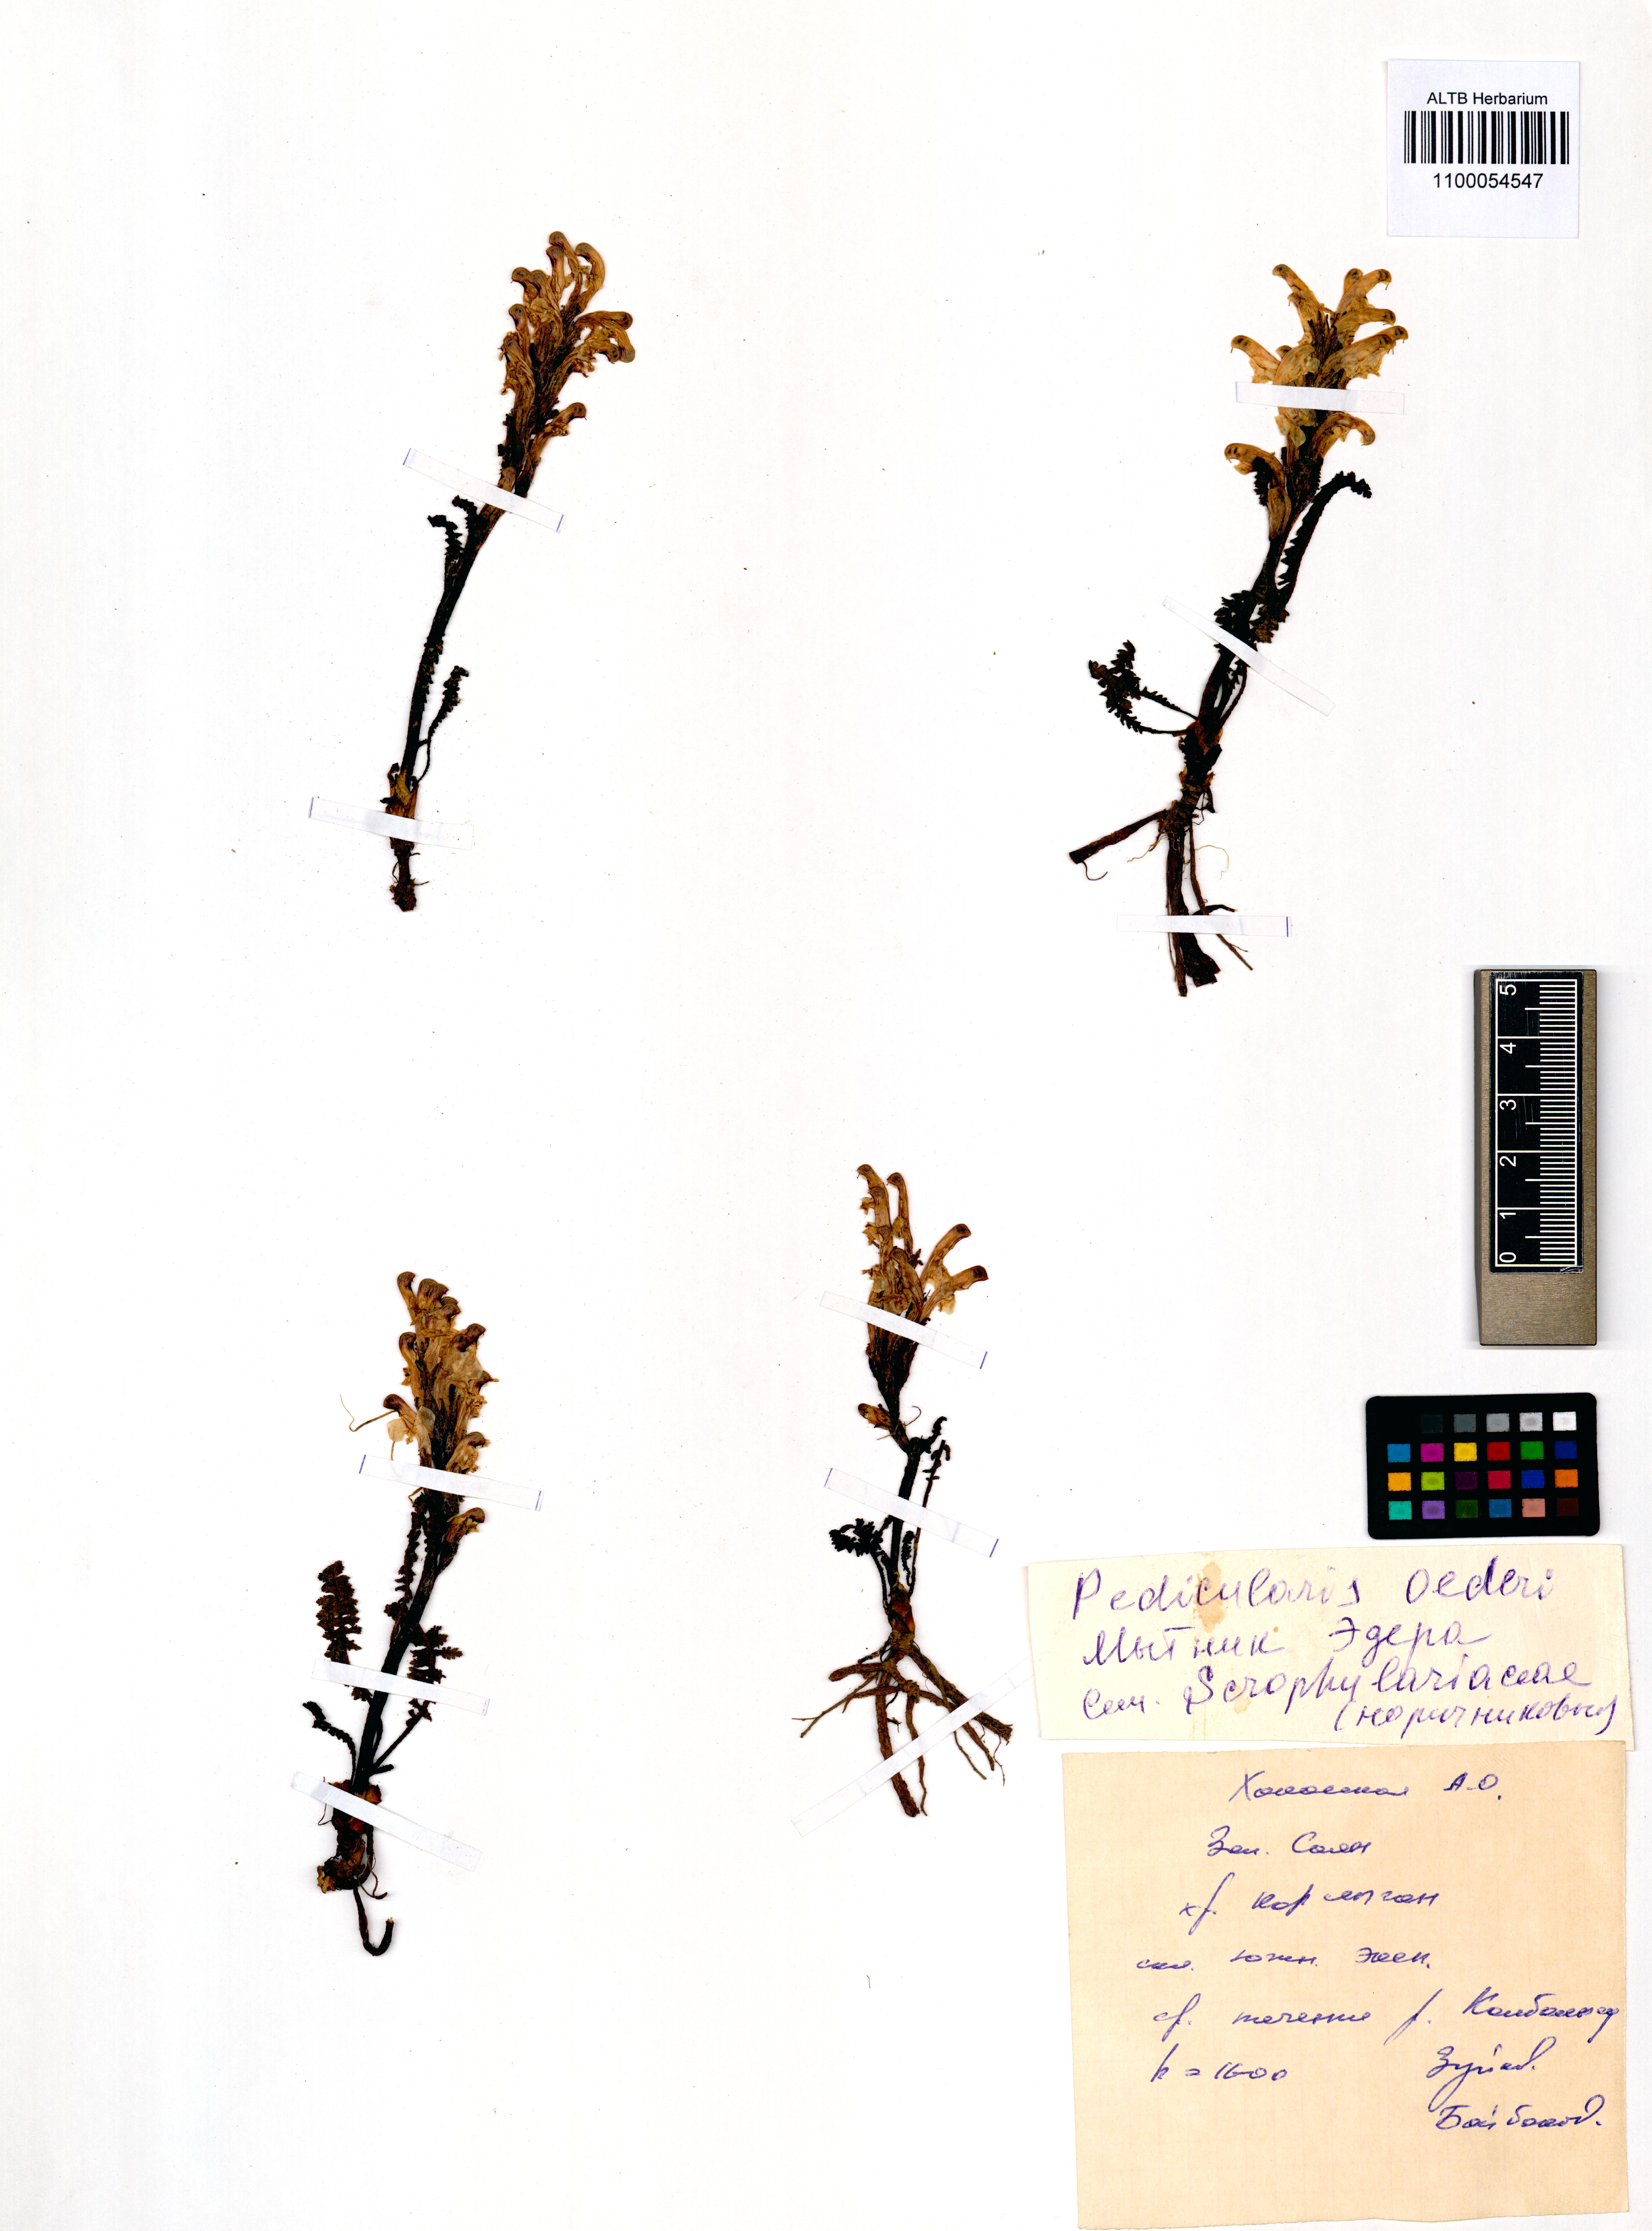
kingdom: Plantae
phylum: Tracheophyta
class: Magnoliopsida
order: Lamiales
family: Orobanchaceae
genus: Pedicularis
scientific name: Pedicularis oederi
